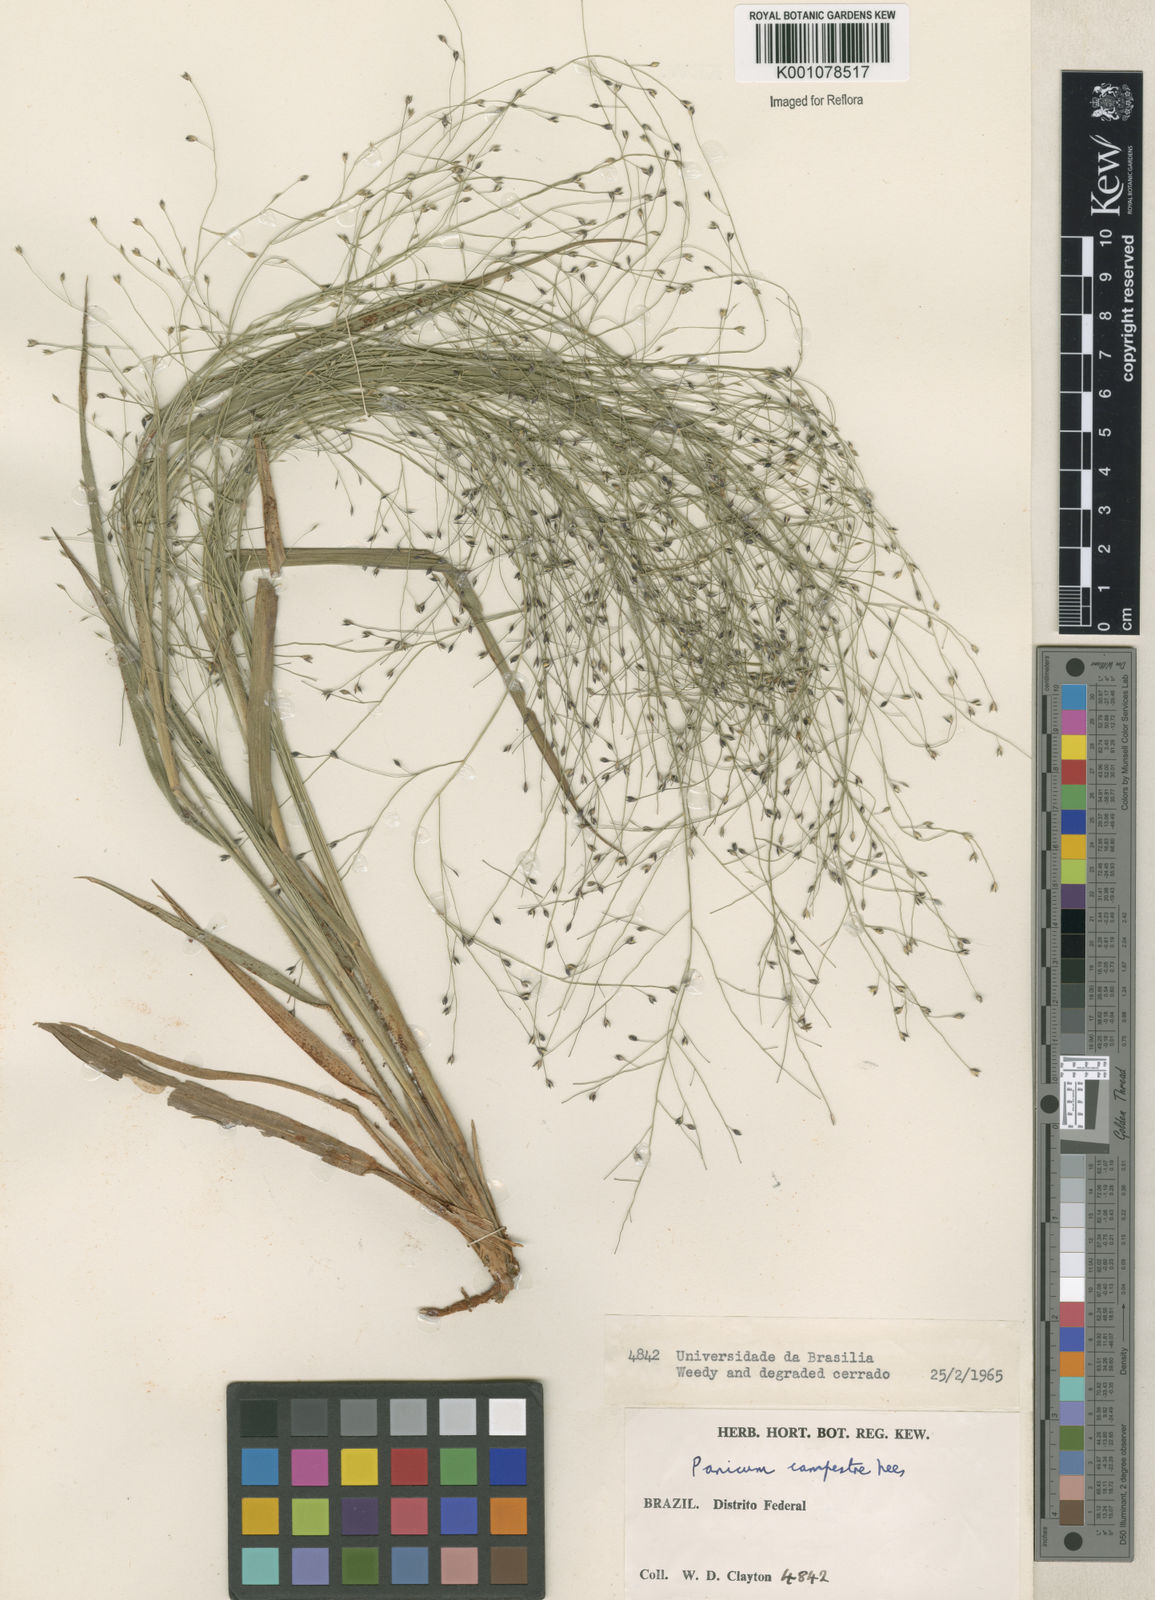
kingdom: Plantae
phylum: Tracheophyta
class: Liliopsida
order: Poales
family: Poaceae
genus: Panicum
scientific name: Panicum campestre
